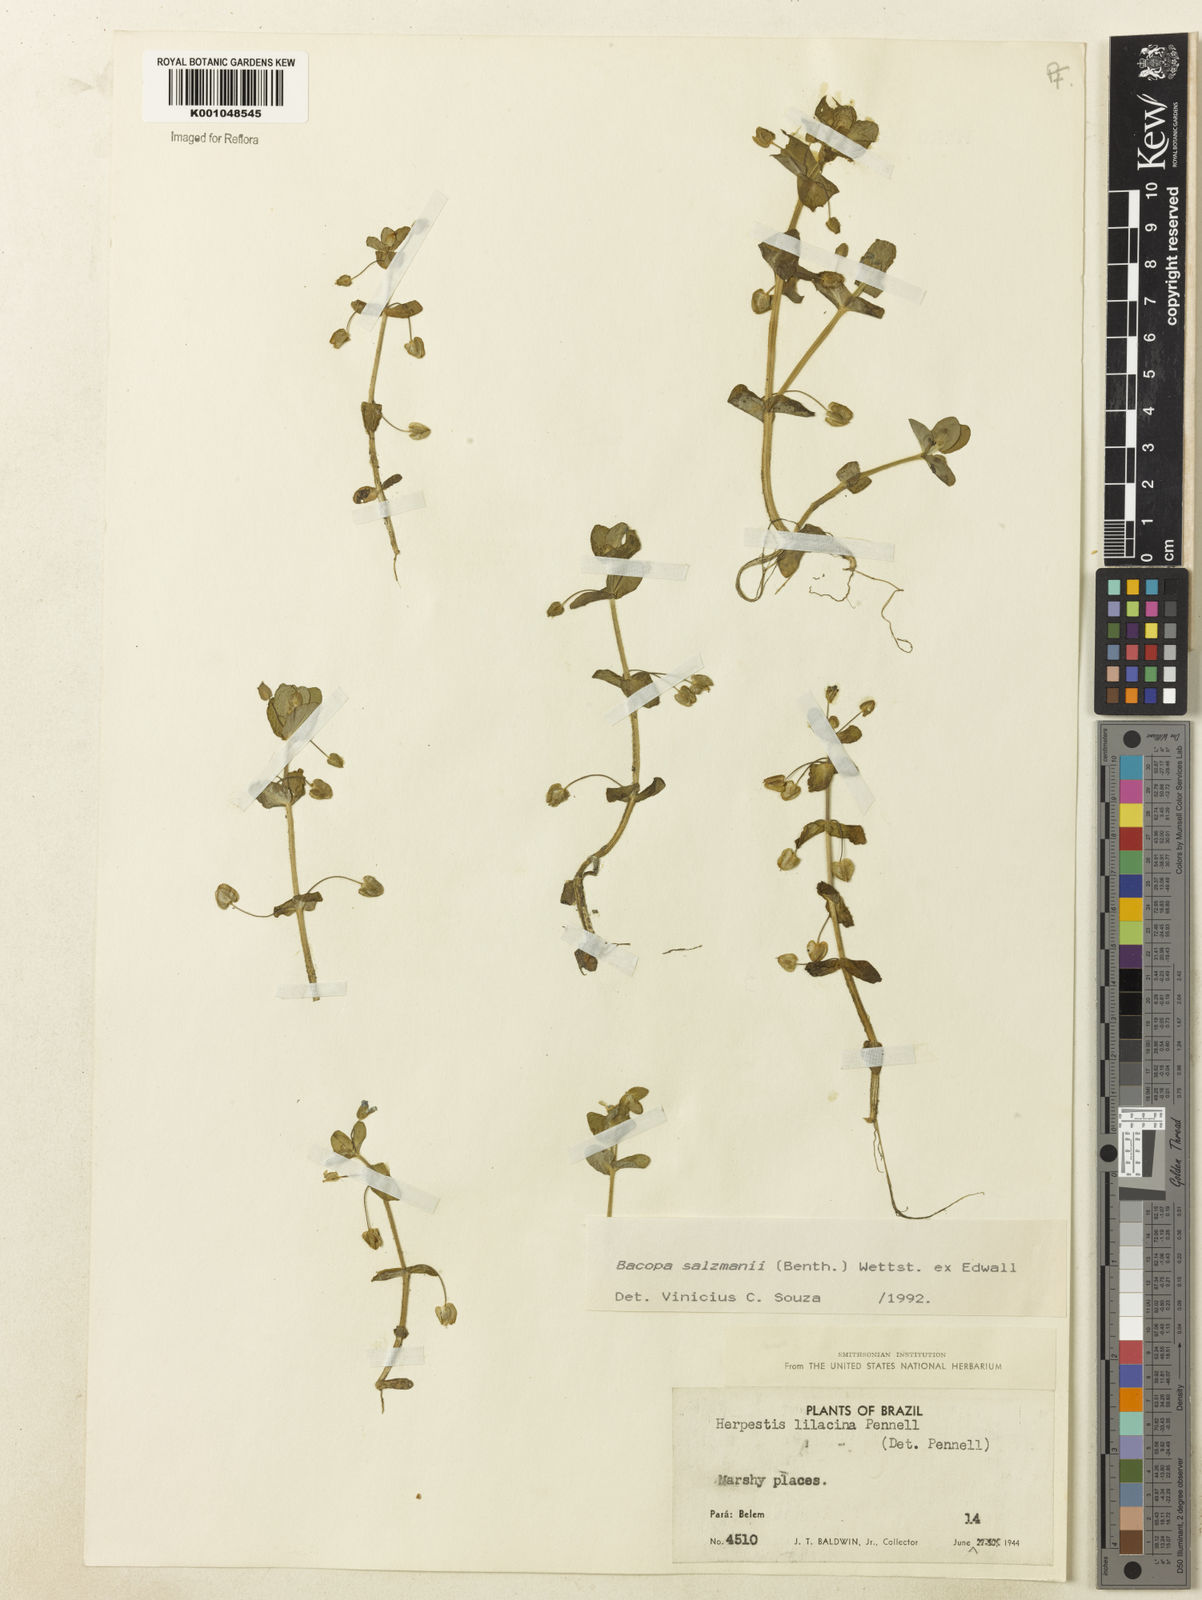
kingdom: Plantae
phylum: Tracheophyta
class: Magnoliopsida
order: Lamiales
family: Plantaginaceae
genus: Bacopa
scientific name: Bacopa salzmannii
